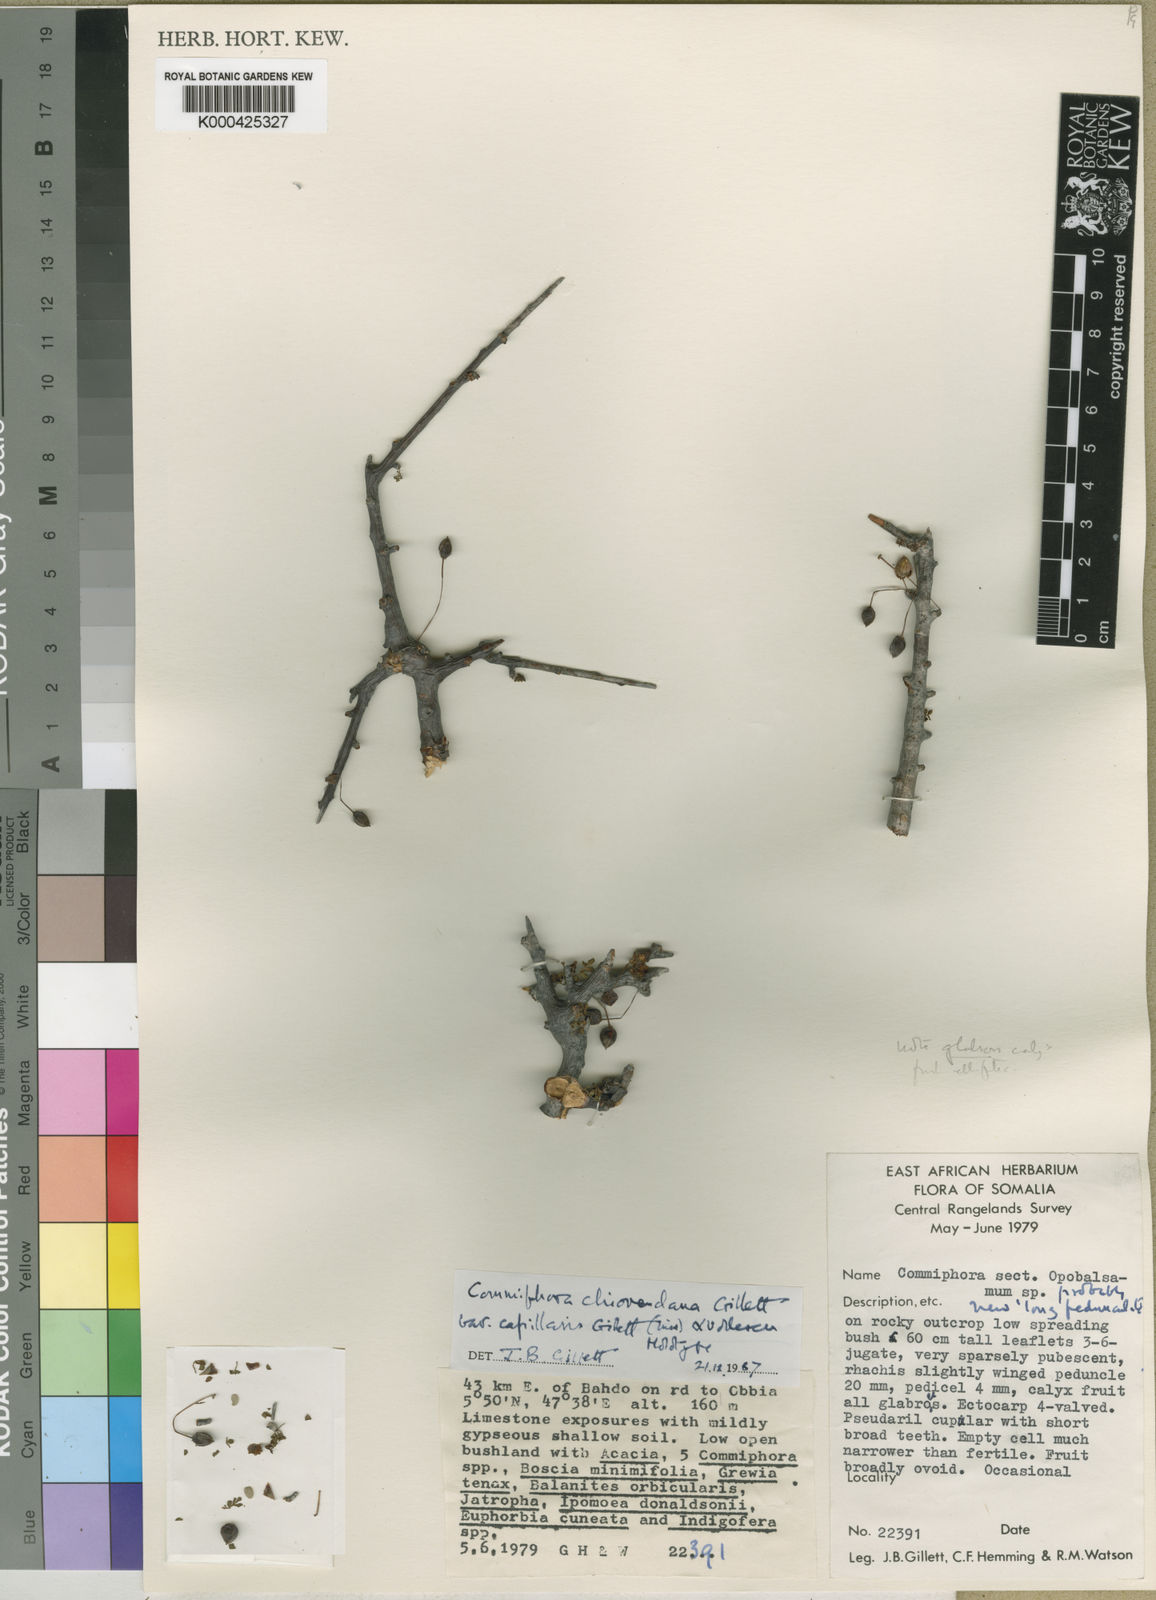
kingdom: Plantae
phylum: Tracheophyta
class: Magnoliopsida
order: Sapindales
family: Burseraceae
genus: Commiphora
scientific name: Commiphora chiovendana
